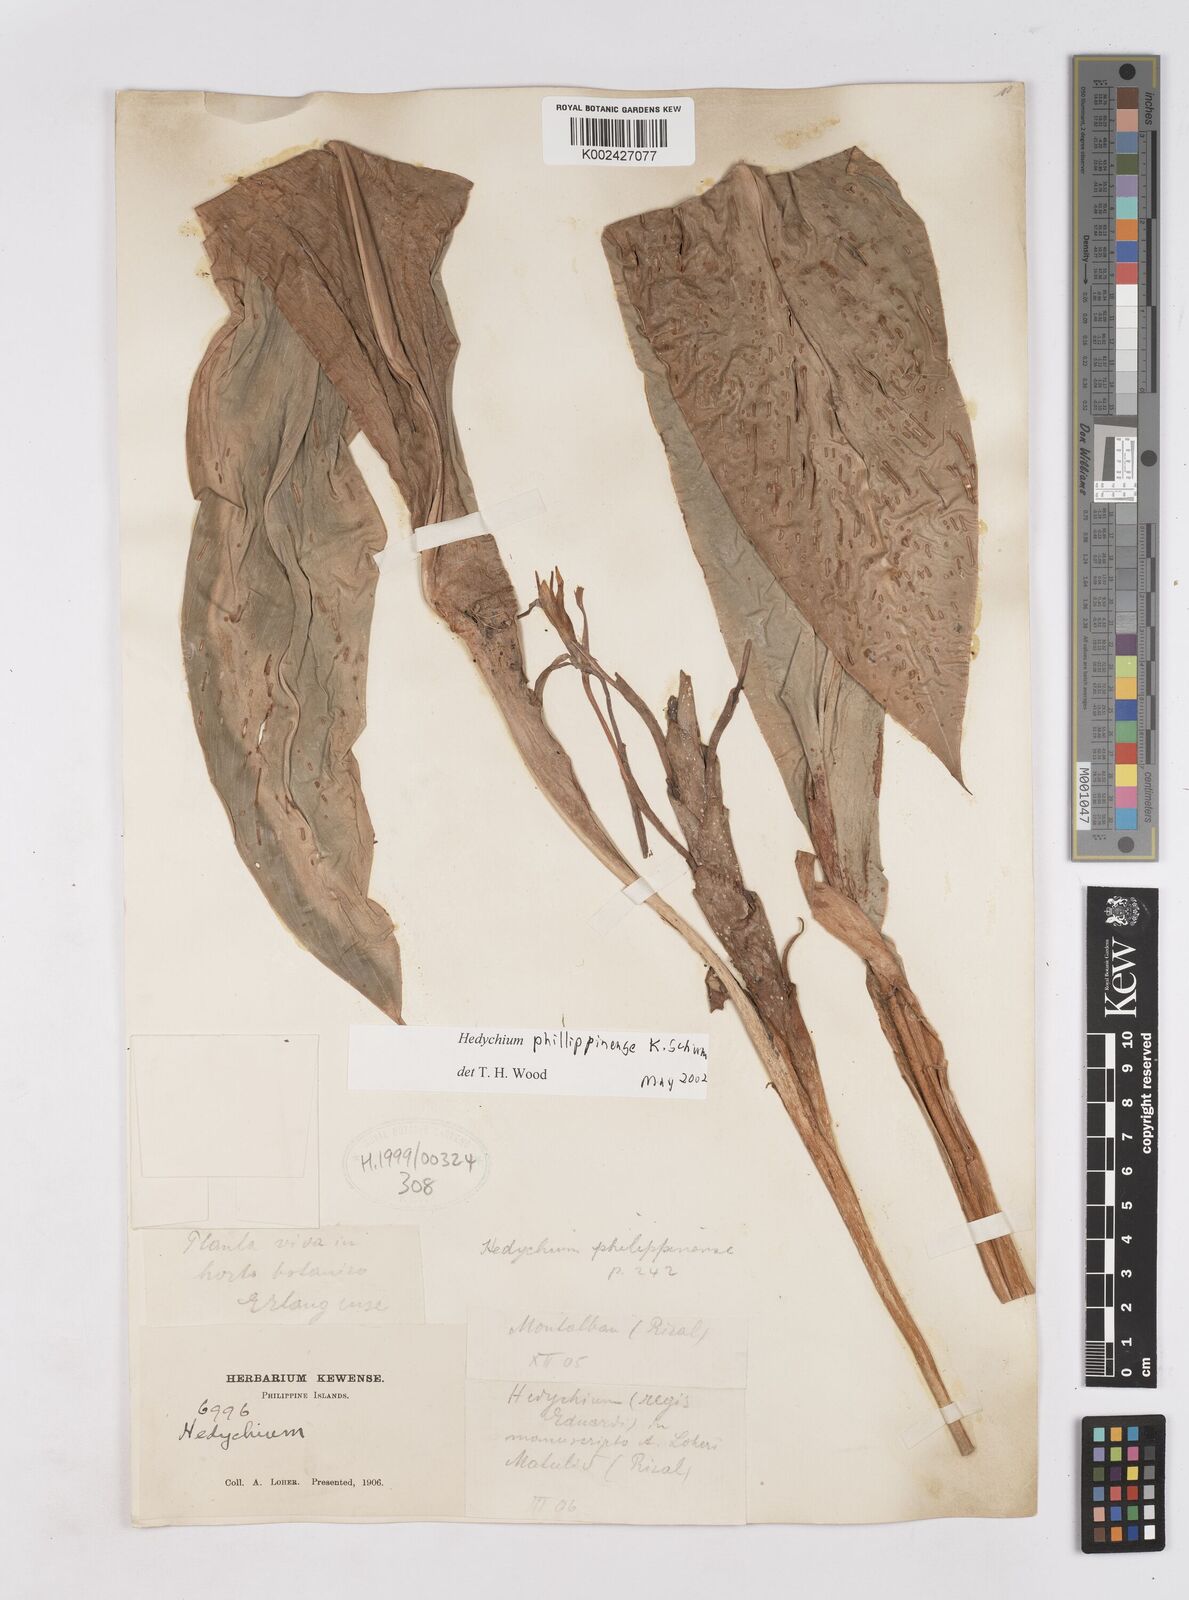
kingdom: Plantae
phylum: Tracheophyta
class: Liliopsida
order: Zingiberales
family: Zingiberaceae
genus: Hedychium
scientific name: Hedychium philippinense
